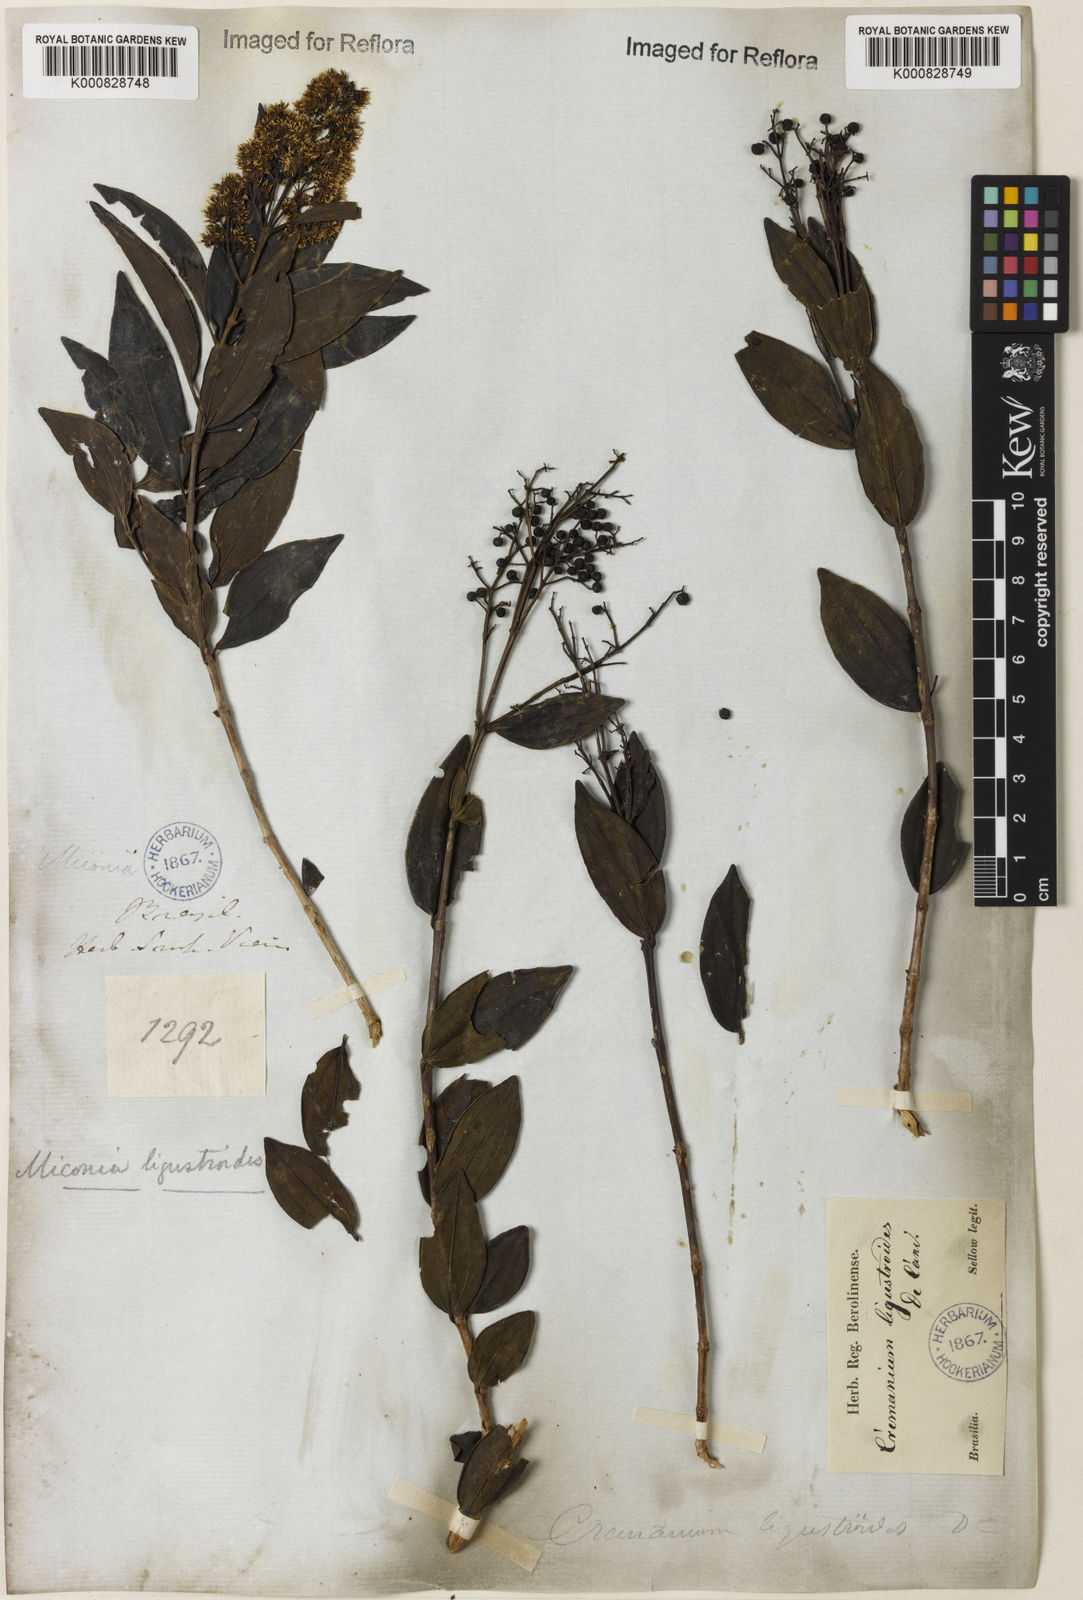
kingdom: Plantae
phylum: Tracheophyta
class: Magnoliopsida
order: Myrtales
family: Melastomataceae
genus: Miconia
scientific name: Miconia ligustroides
